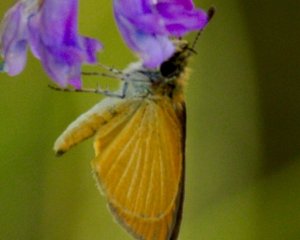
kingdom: Animalia
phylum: Arthropoda
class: Insecta
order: Lepidoptera
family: Hesperiidae
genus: Ancyloxypha
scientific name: Ancyloxypha numitor
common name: Least Skipper
